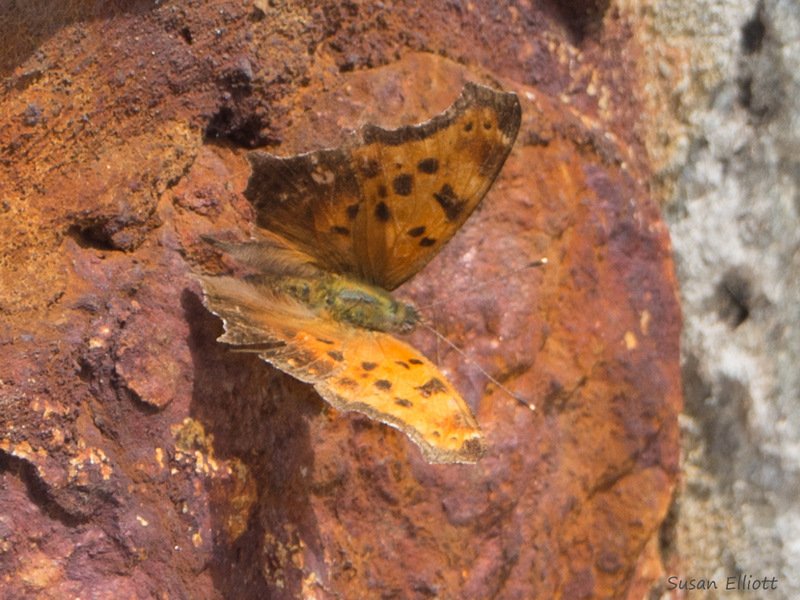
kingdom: Animalia
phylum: Arthropoda
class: Insecta
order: Lepidoptera
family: Nymphalidae
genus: Polygonia
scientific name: Polygonia comma
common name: Eastern Comma
